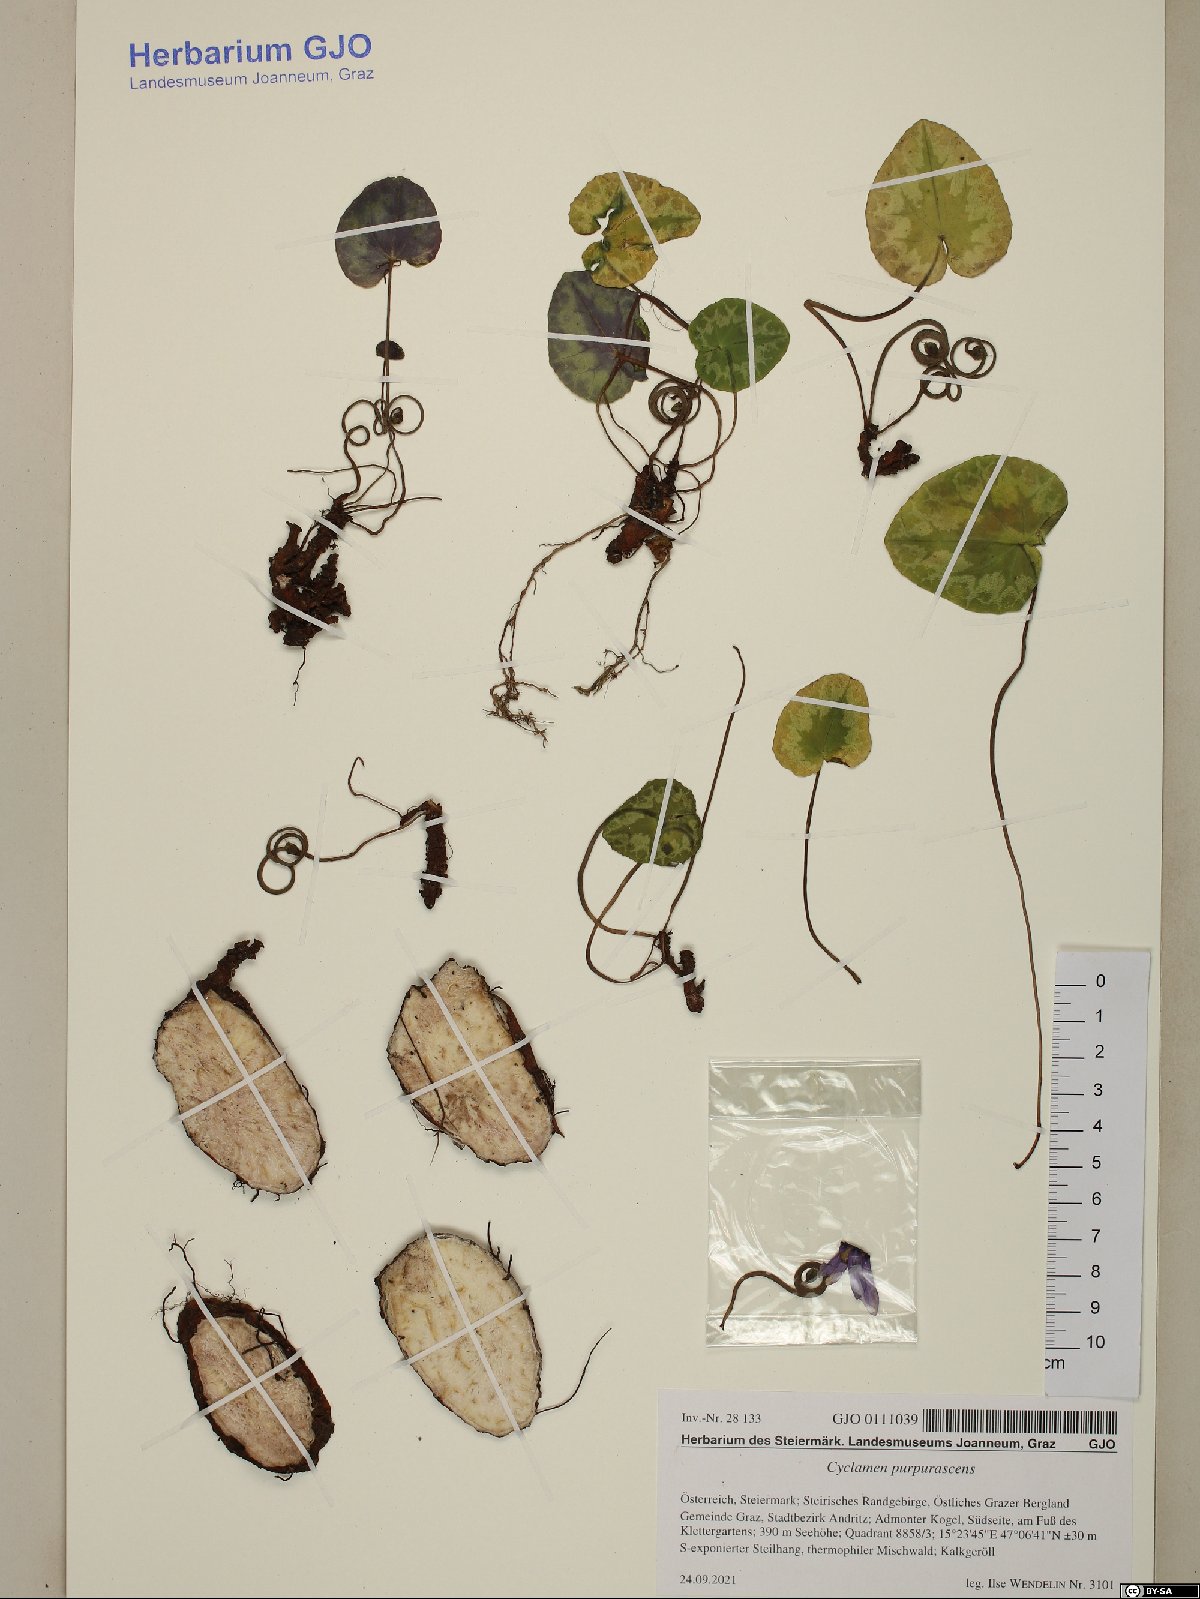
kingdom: Plantae
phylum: Tracheophyta
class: Magnoliopsida
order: Ericales
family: Primulaceae
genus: Cyclamen
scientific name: Cyclamen purpurascens
